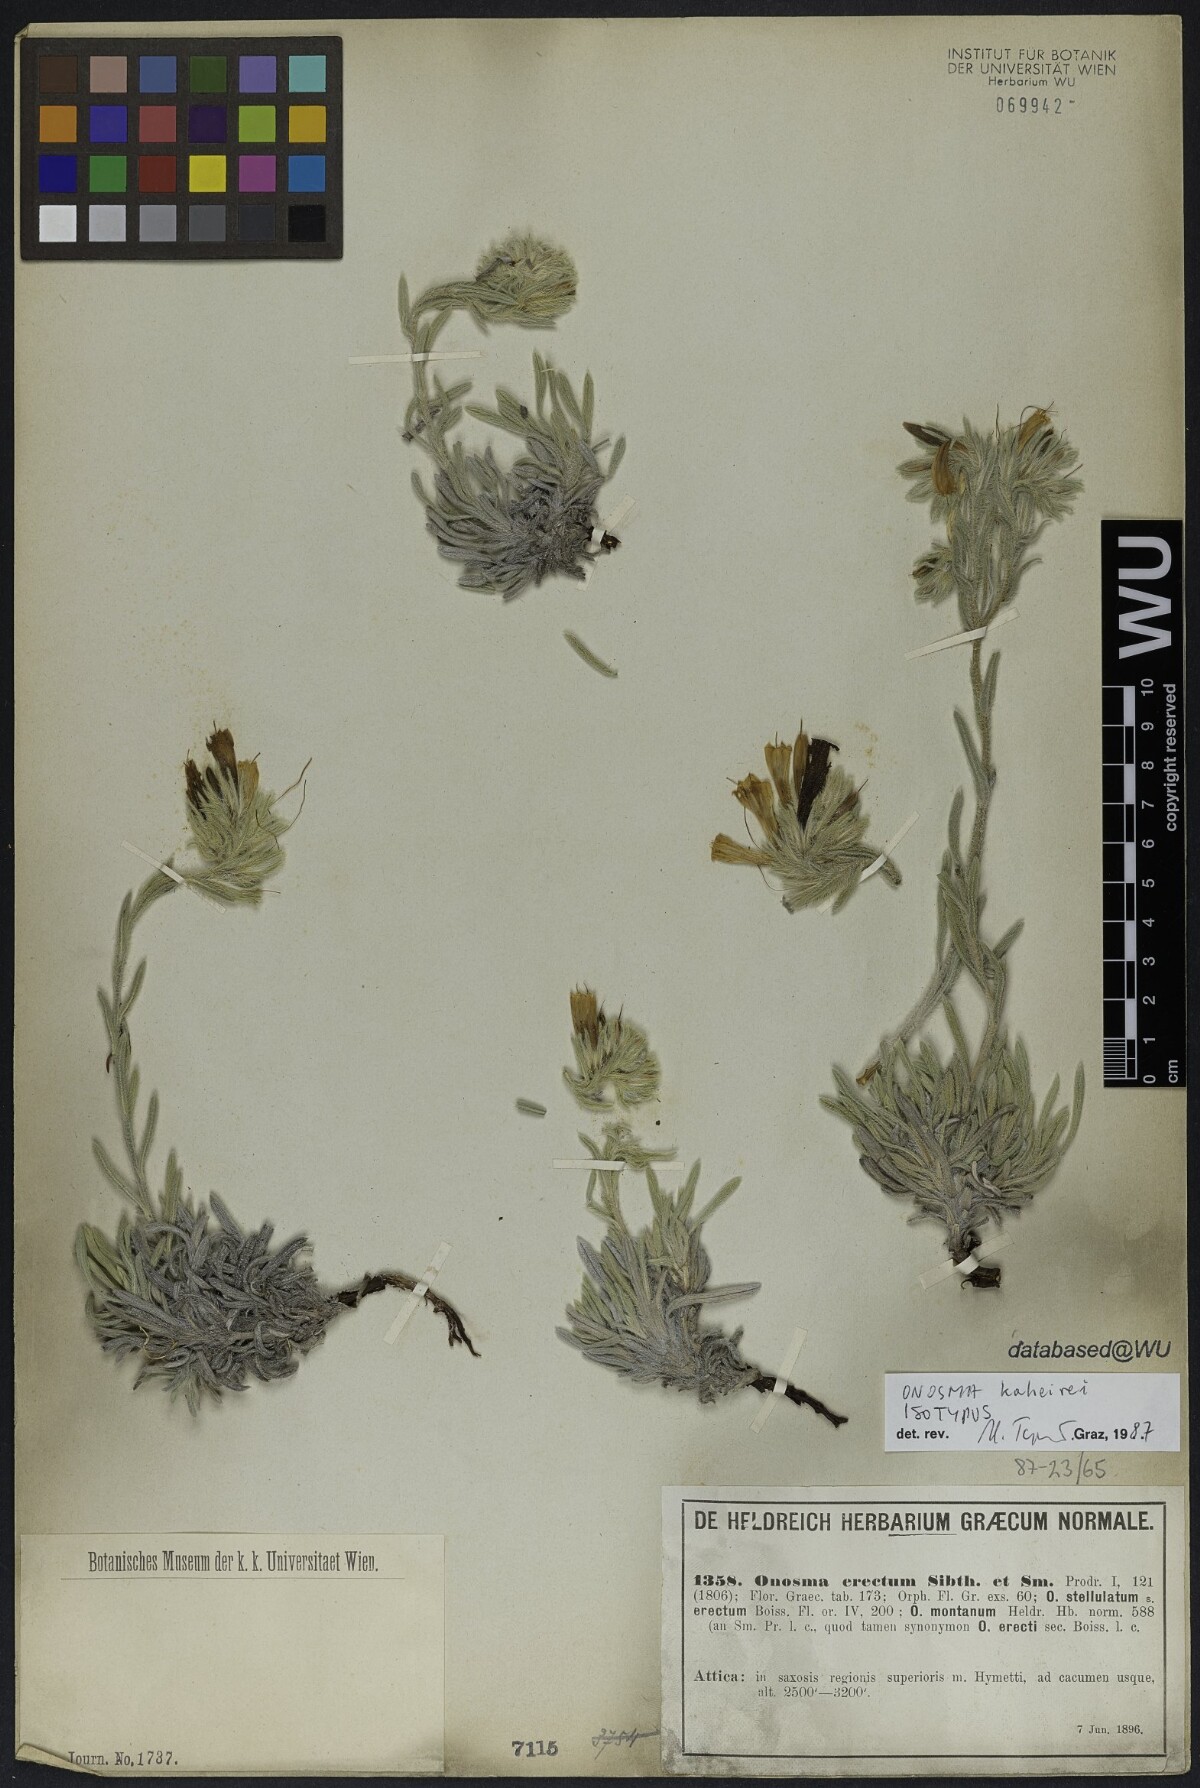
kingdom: Plantae
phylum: Tracheophyta
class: Magnoliopsida
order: Boraginales
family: Boraginaceae
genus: Onosma
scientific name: Onosma kaheirei
